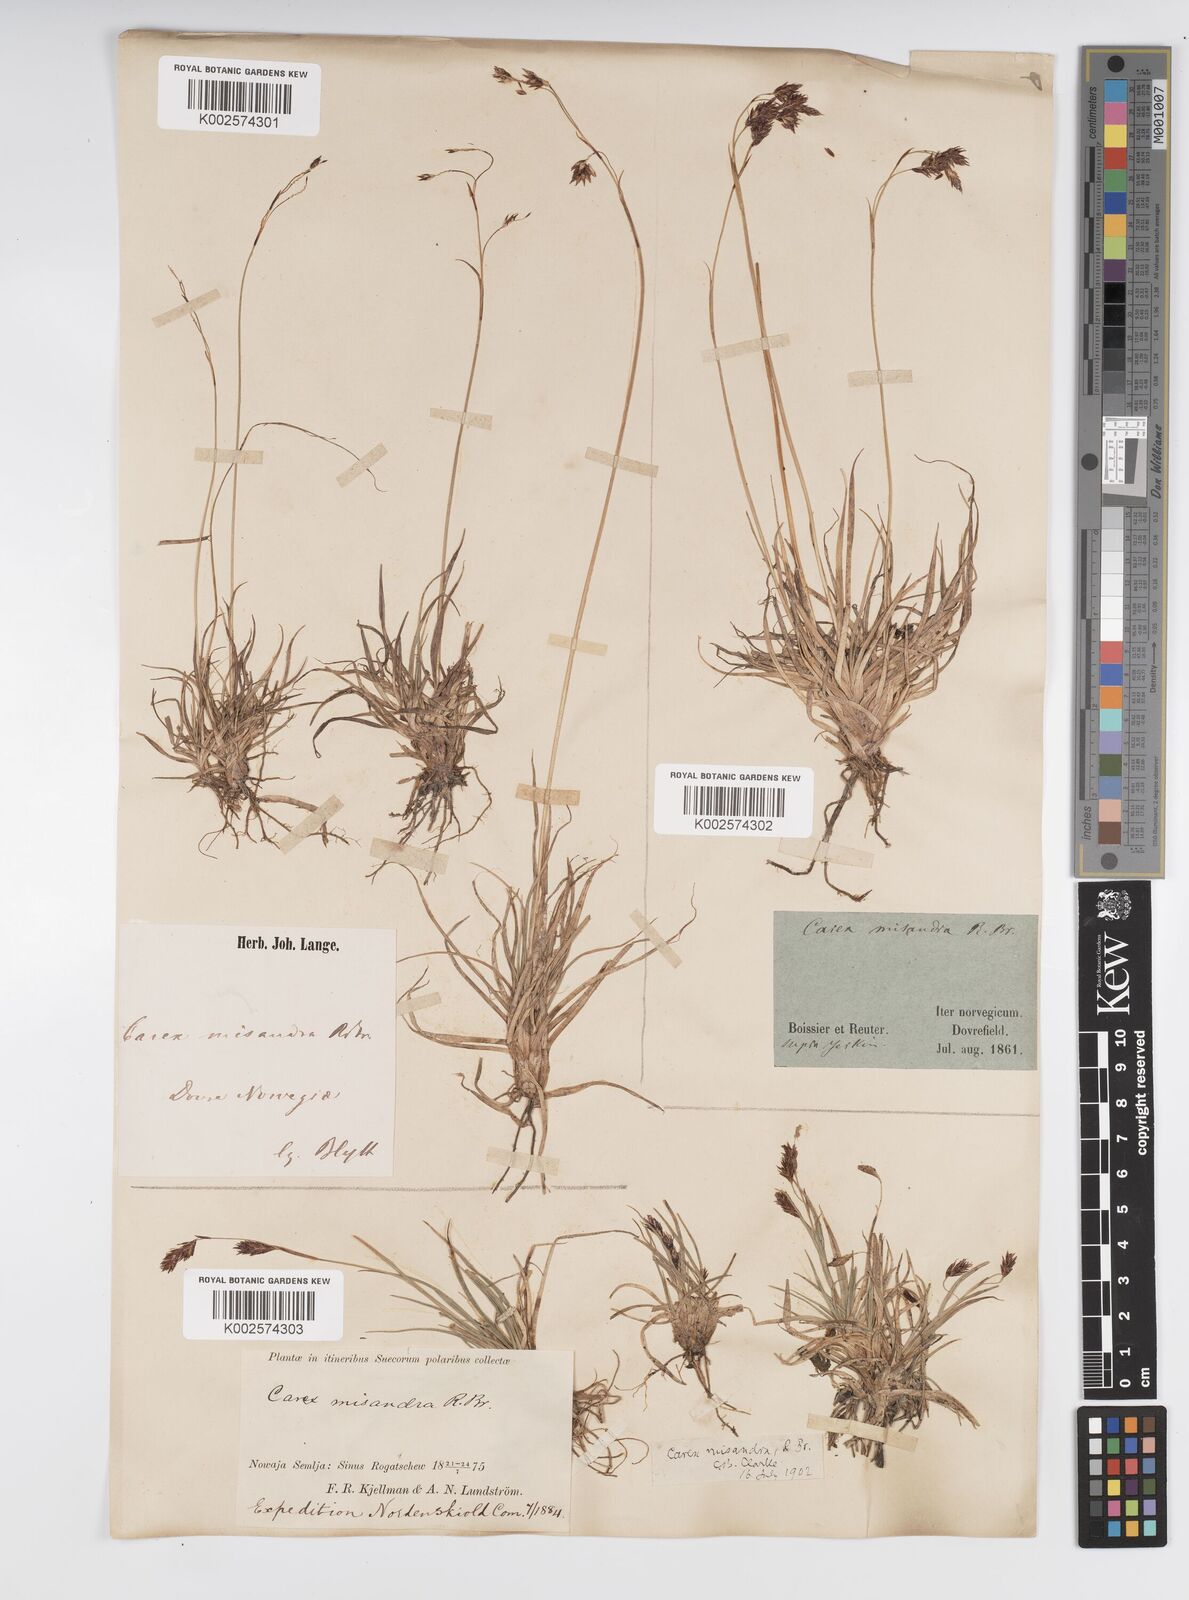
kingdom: Plantae
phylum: Tracheophyta
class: Liliopsida
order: Poales
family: Cyperaceae
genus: Carex
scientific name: Carex fuliginosa
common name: Few-flowered sedge
